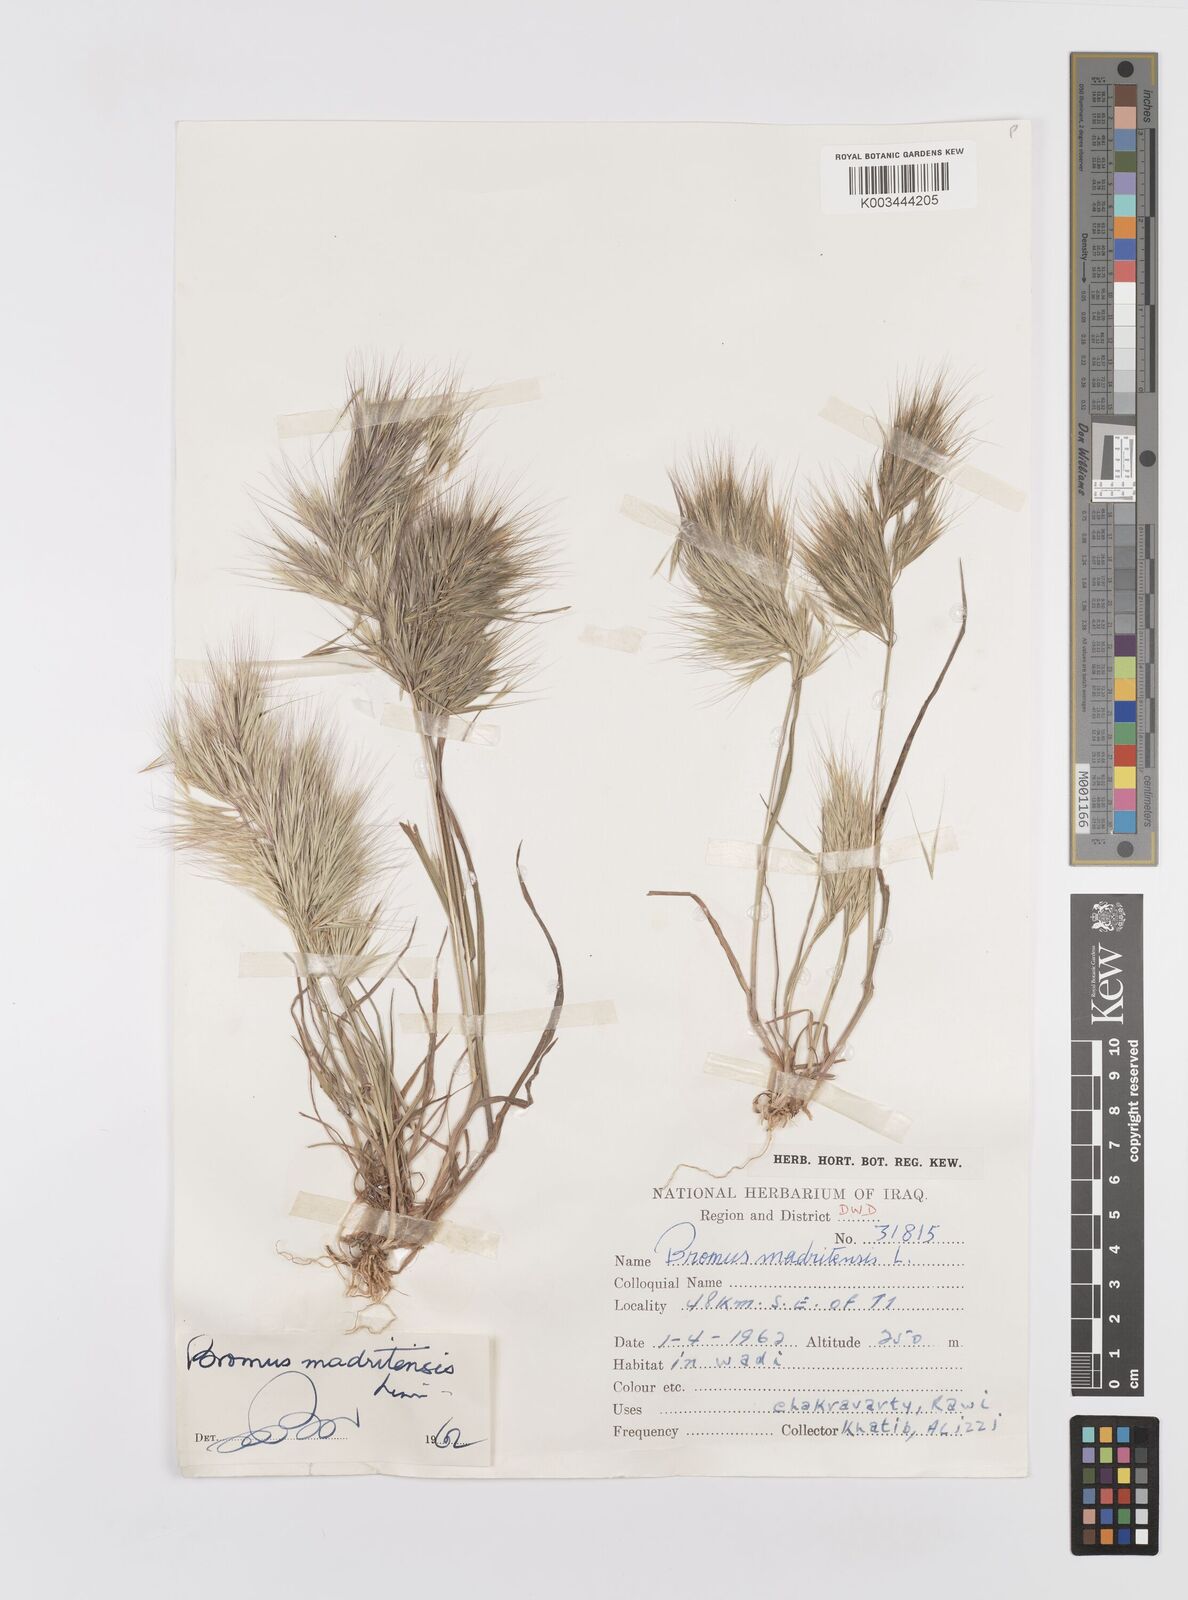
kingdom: Plantae
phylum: Tracheophyta
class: Liliopsida
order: Poales
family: Poaceae
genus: Bromus
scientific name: Bromus madritensis
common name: Compact brome
